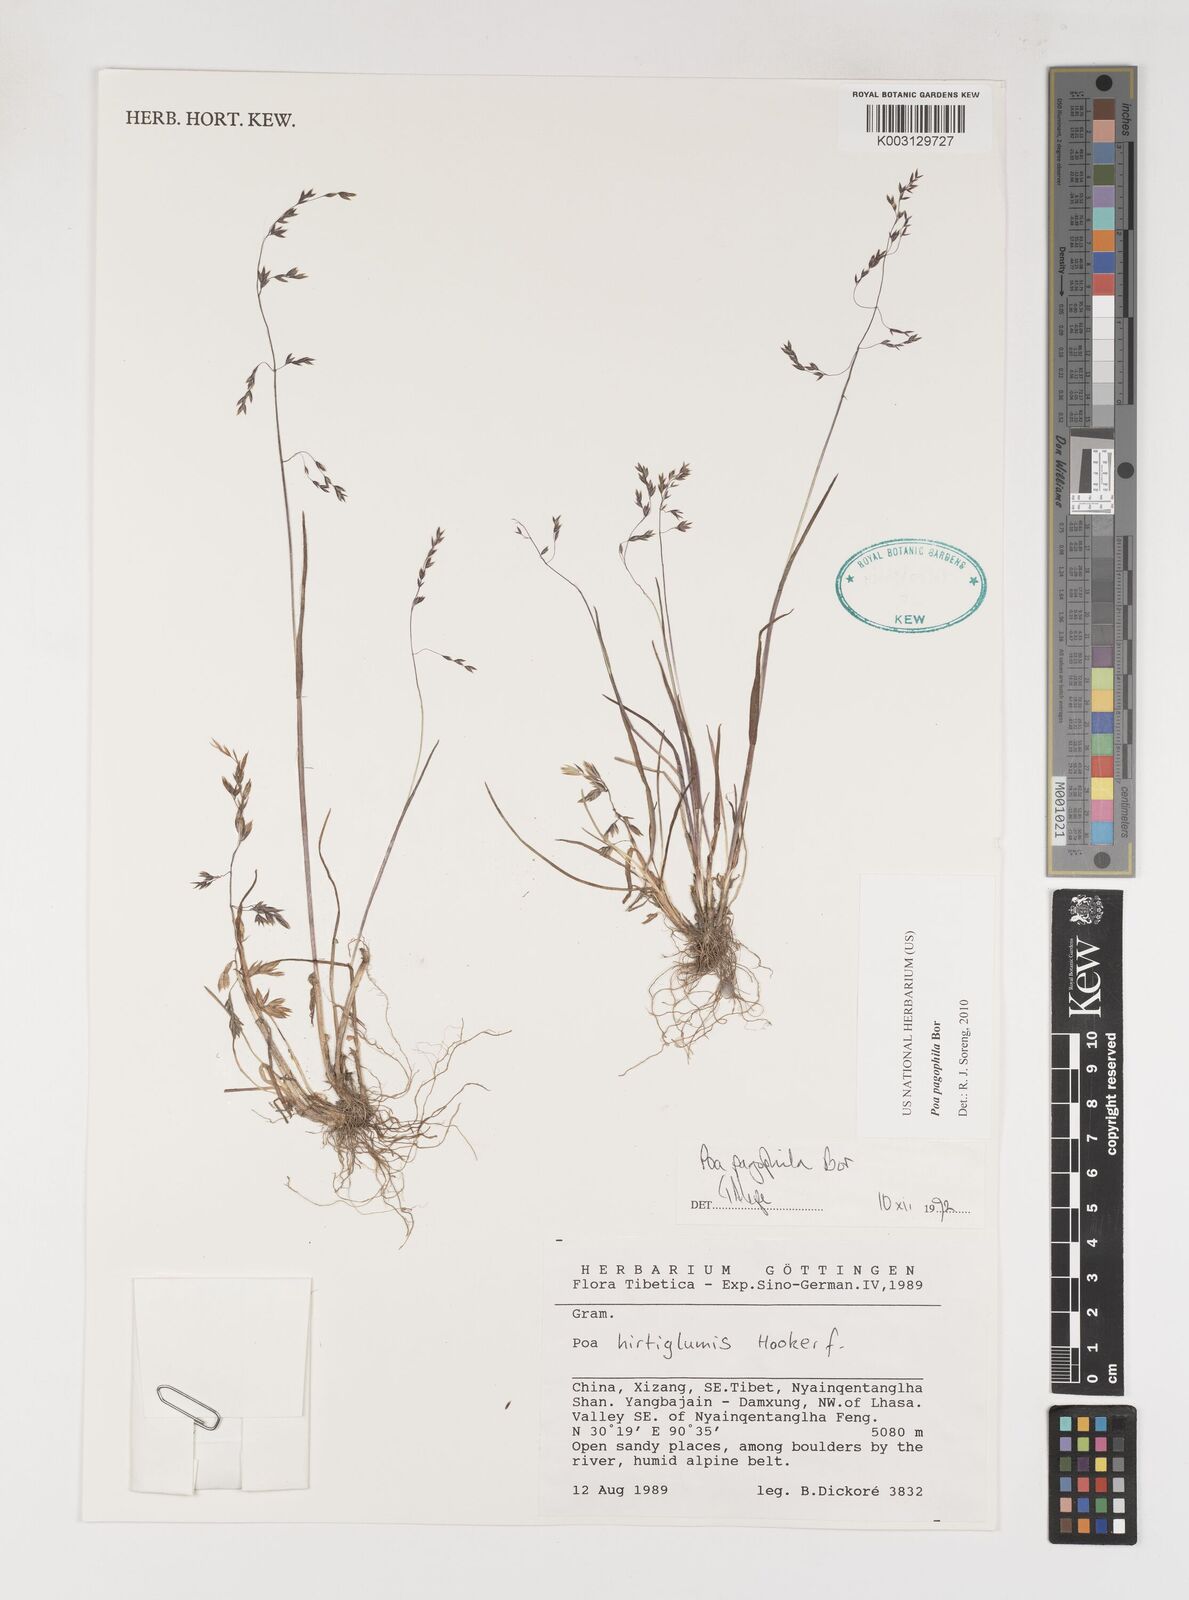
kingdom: Plantae
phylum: Tracheophyta
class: Liliopsida
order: Poales
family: Poaceae
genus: Poa
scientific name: Poa pagophila
